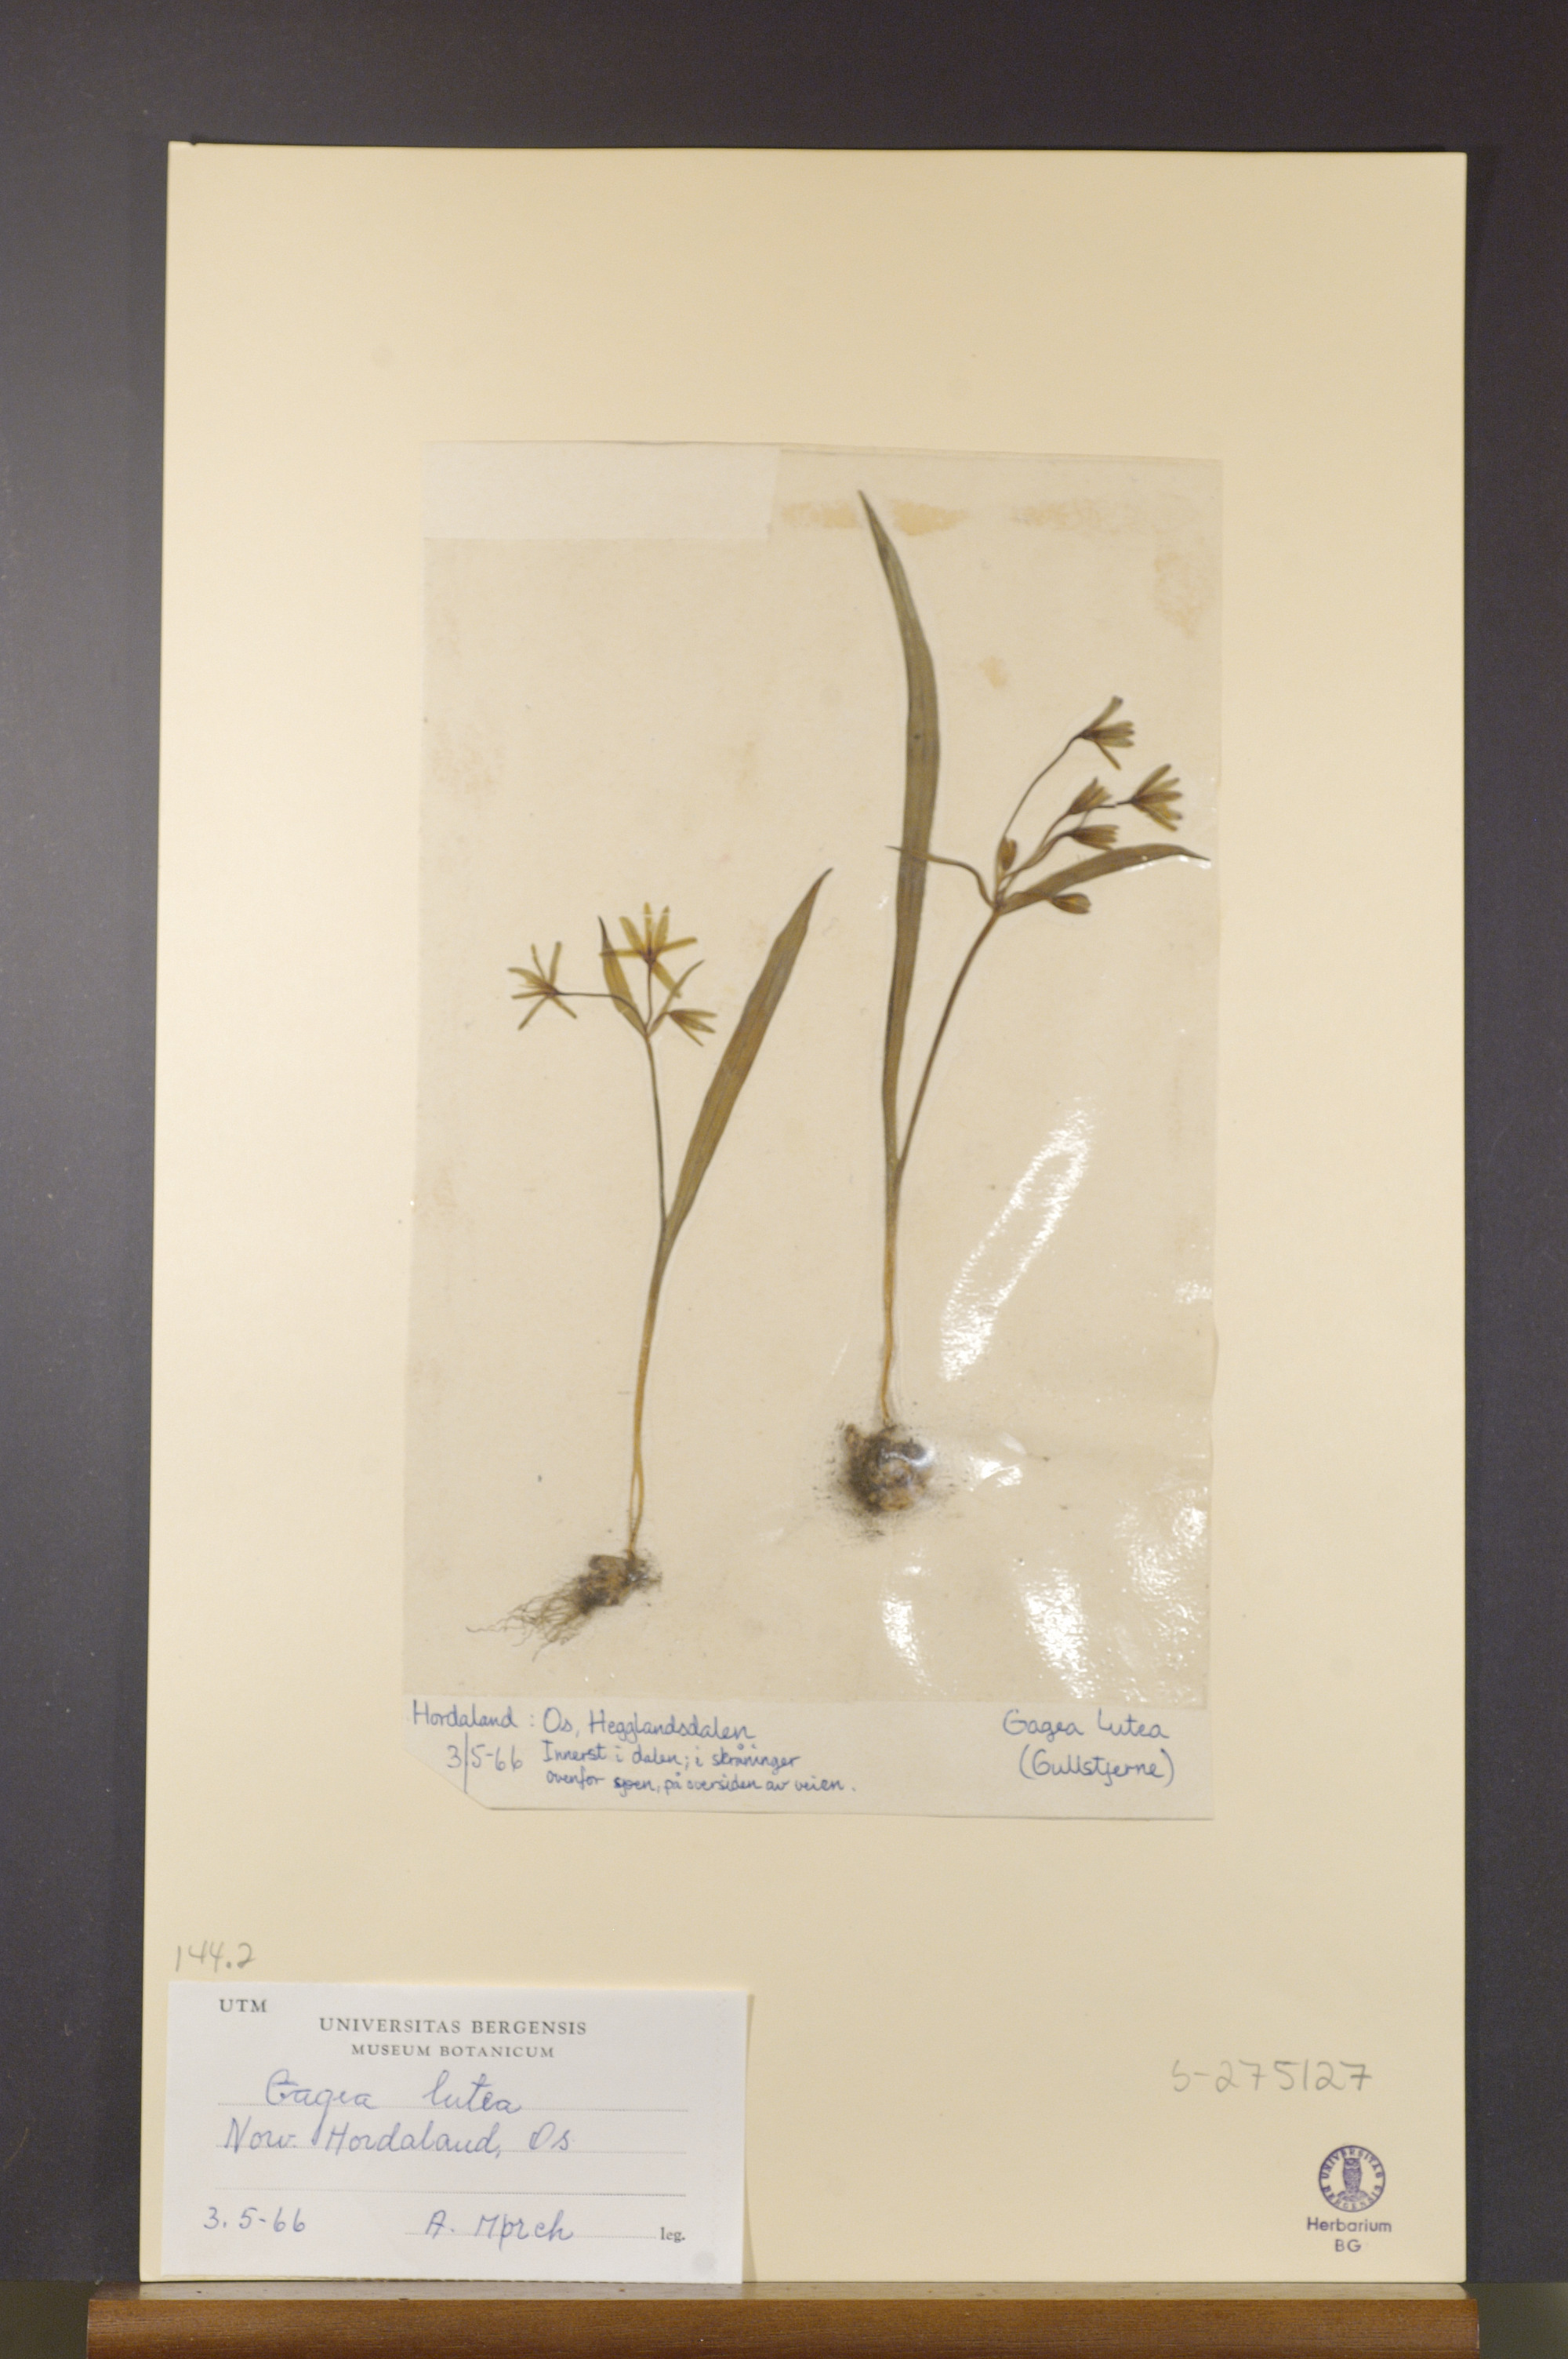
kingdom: Plantae
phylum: Tracheophyta
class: Liliopsida
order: Liliales
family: Liliaceae
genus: Gagea
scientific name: Gagea lutea
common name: Yellow star-of-bethlehem
